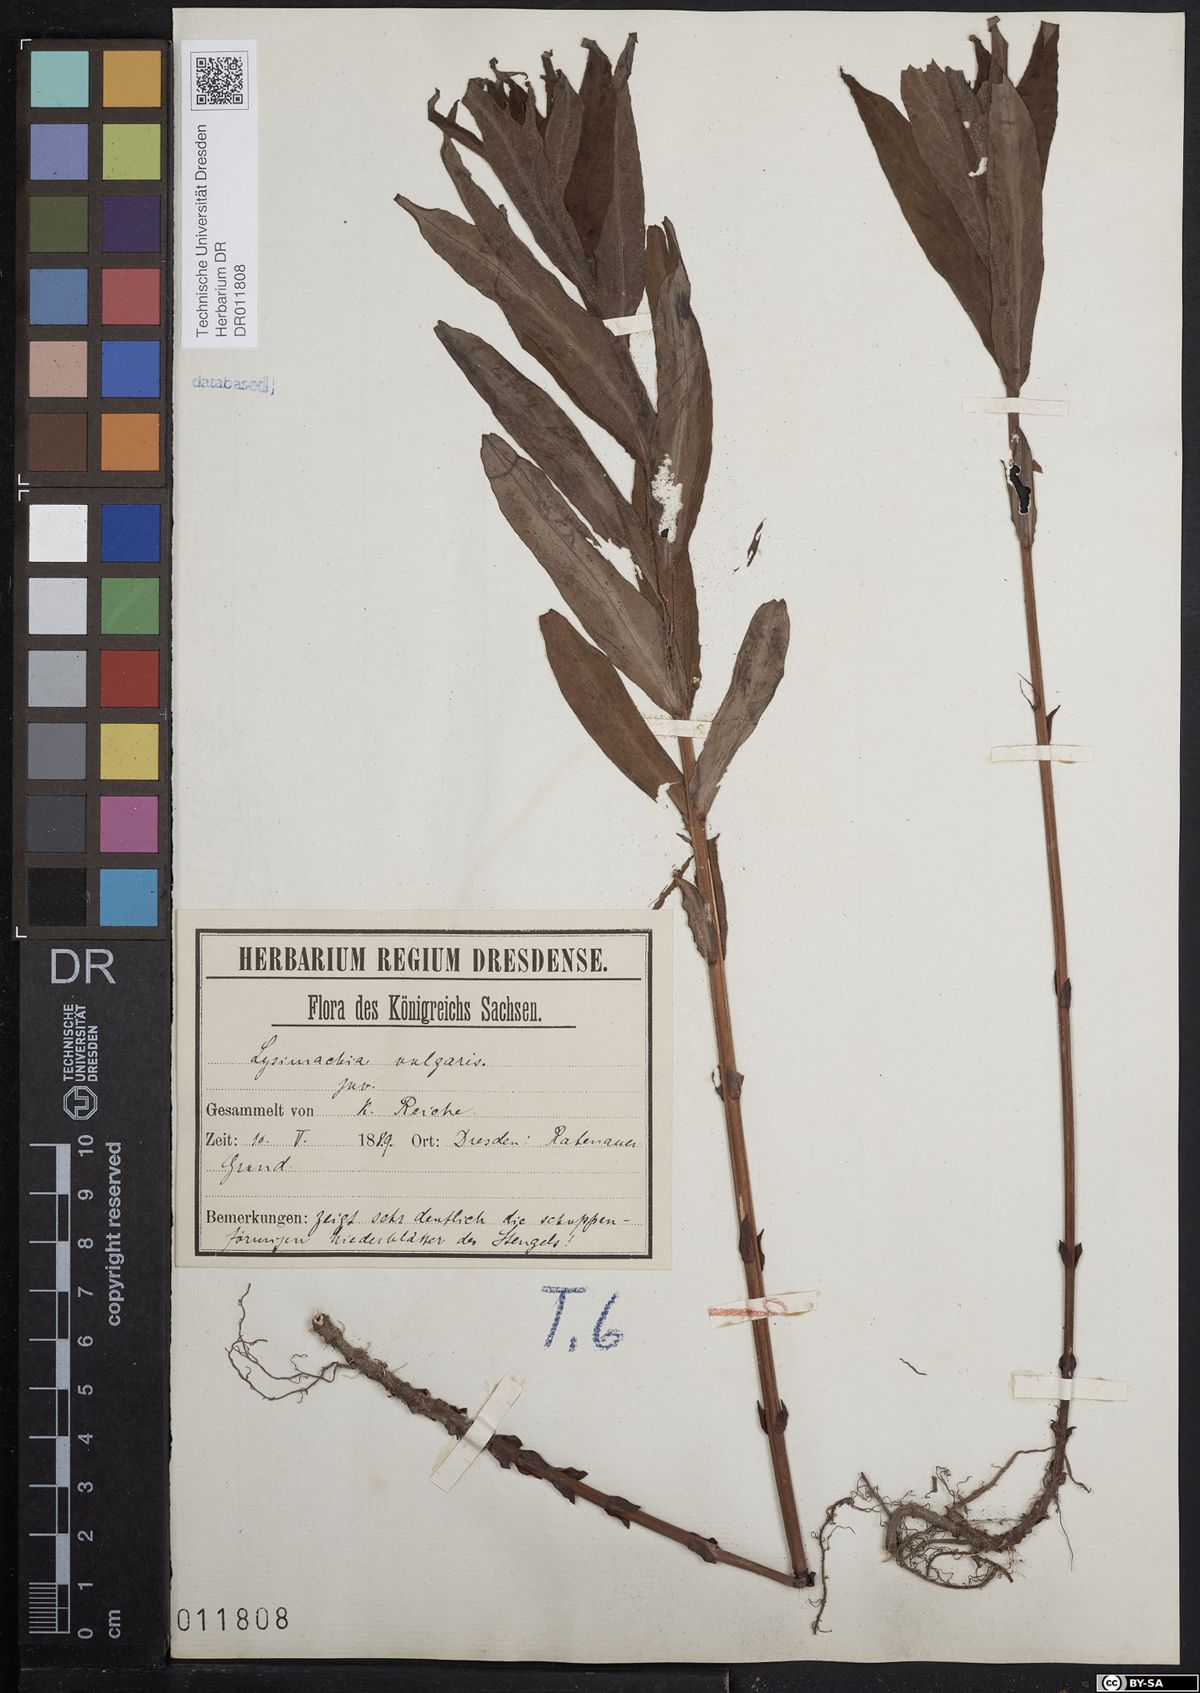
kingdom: Plantae
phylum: Tracheophyta
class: Magnoliopsida
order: Ericales
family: Primulaceae
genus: Lysimachia
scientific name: Lysimachia vulgaris
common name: Yellow loosestrife
